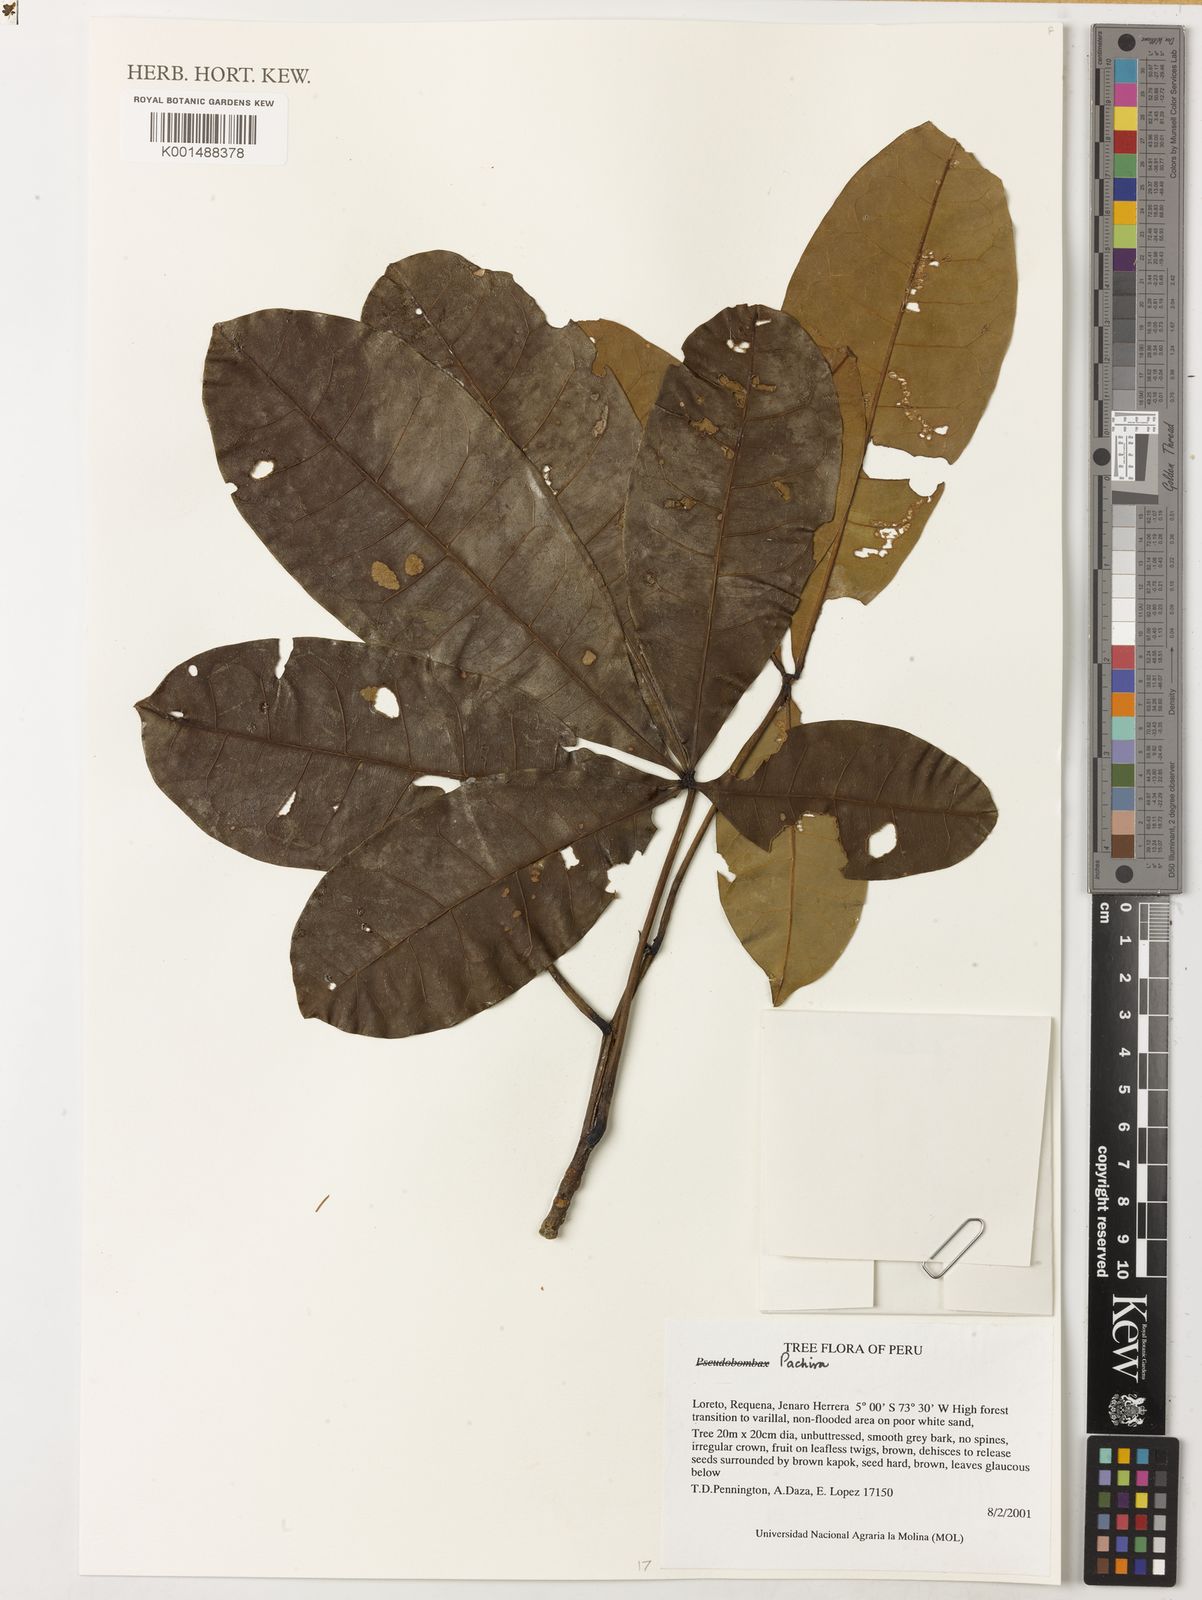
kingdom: Plantae
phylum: Tracheophyta
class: Magnoliopsida
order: Malvales
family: Malvaceae
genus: Pachira
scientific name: Pachira macrocalyx
